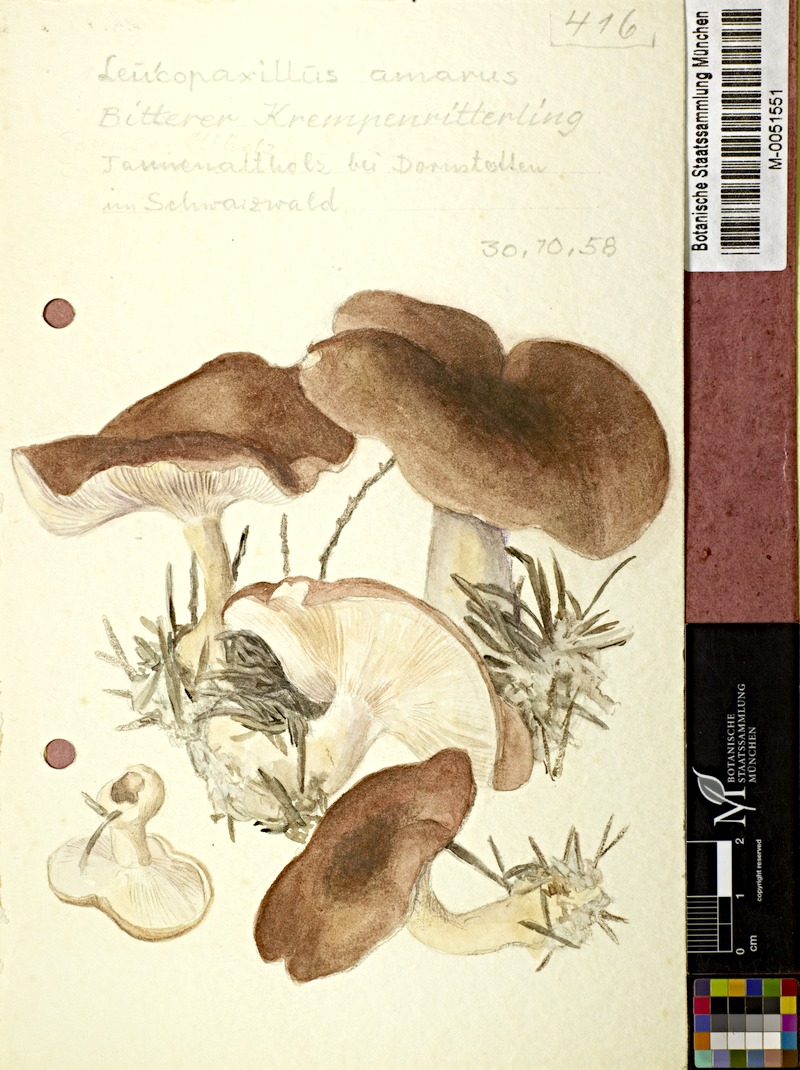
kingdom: Fungi
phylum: Basidiomycota
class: Agaricomycetes
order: Agaricales
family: Tricholomataceae
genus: Leucopaxillus
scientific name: Leucopaxillus gentianeus
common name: Bitter funnel
